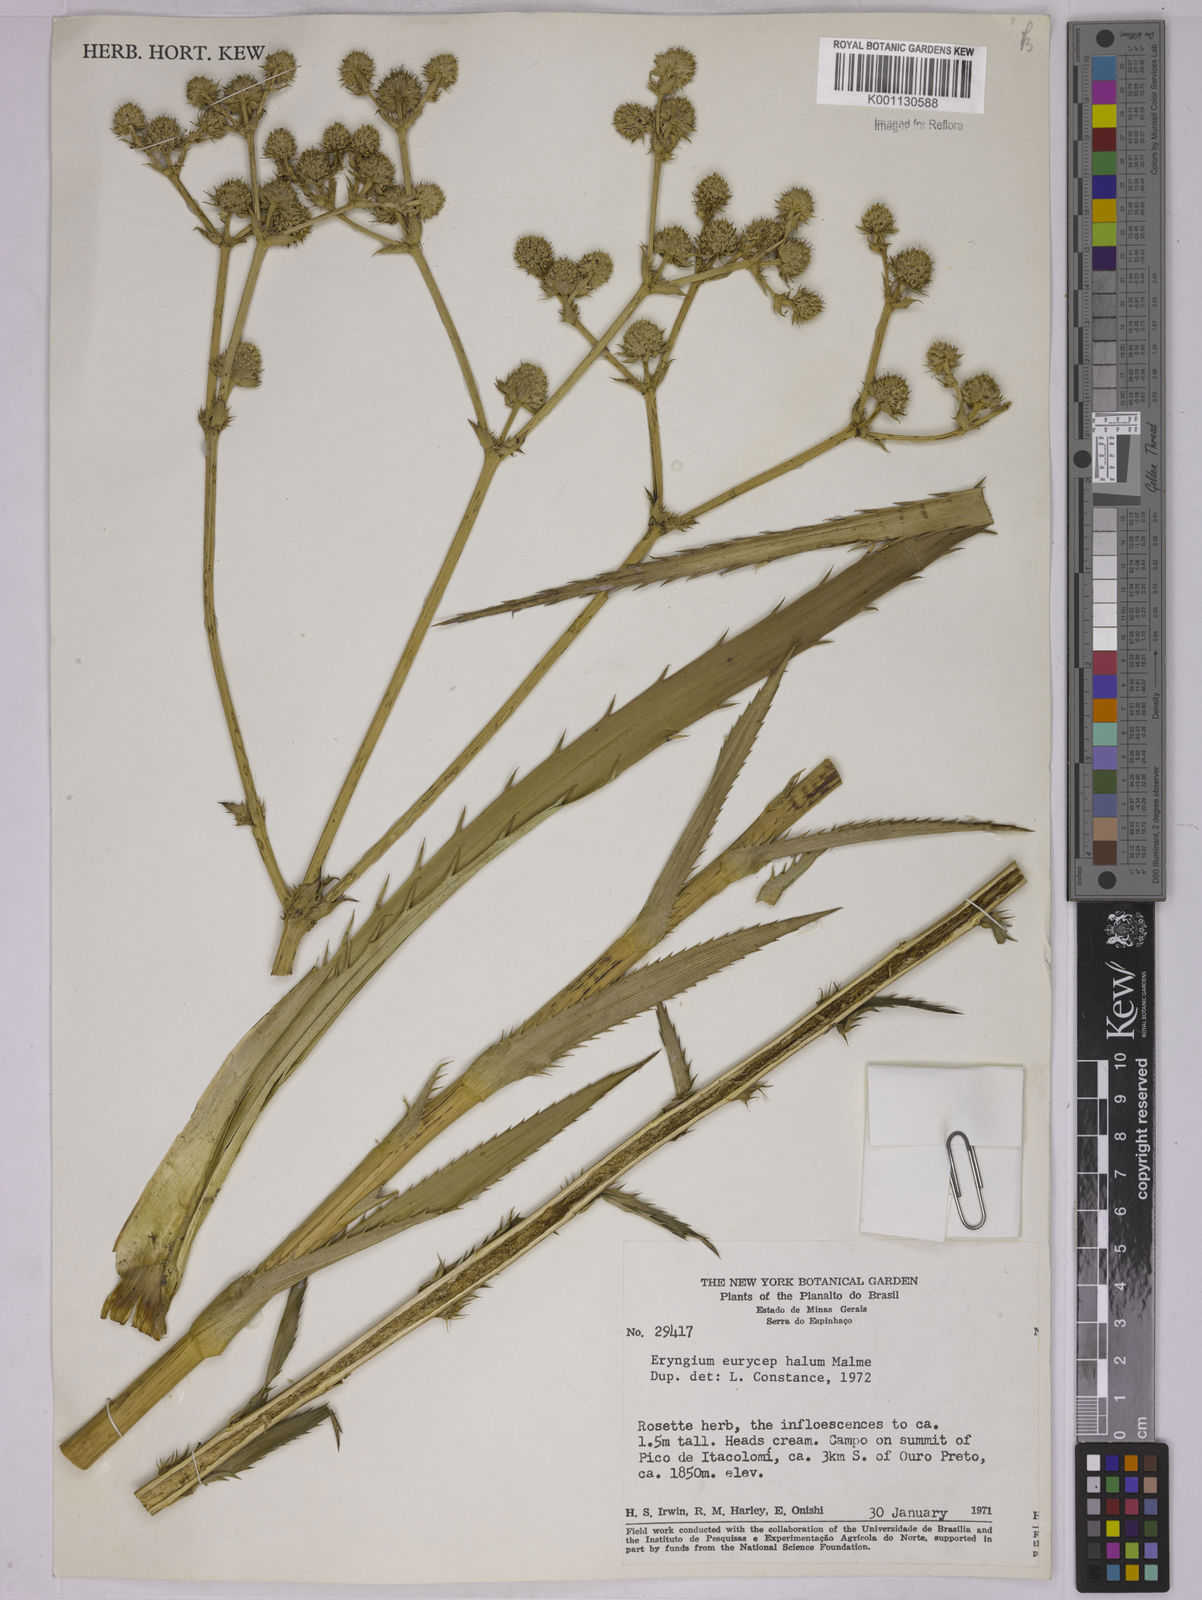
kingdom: Plantae
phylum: Tracheophyta
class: Magnoliopsida
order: Apiales
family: Apiaceae
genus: Eryngium
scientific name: Eryngium eurycephalum
